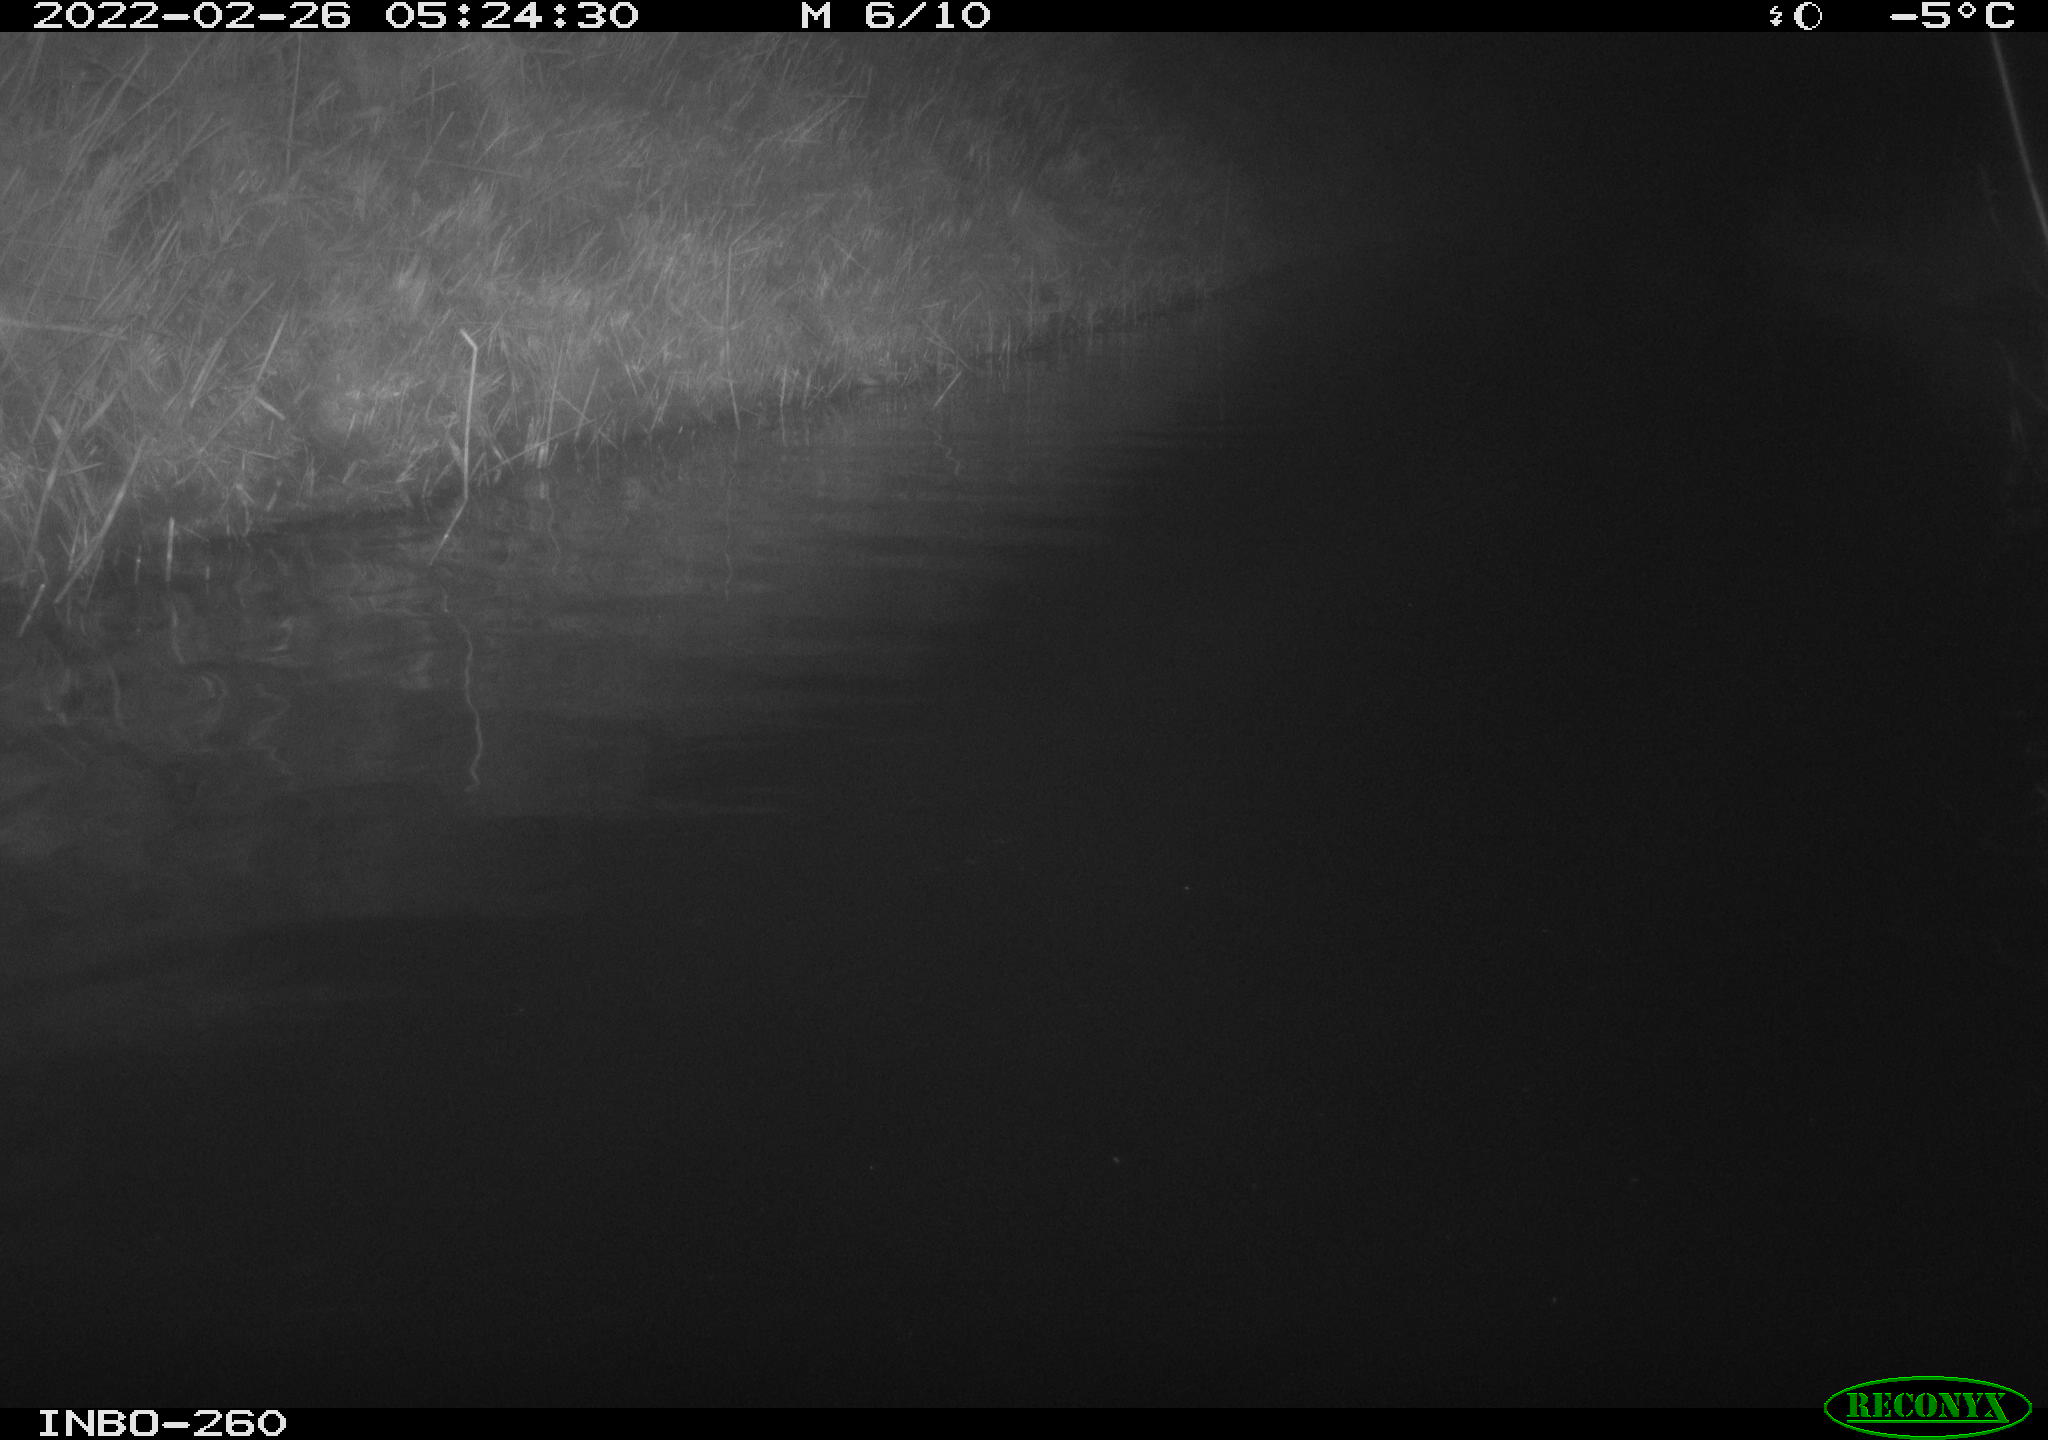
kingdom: Animalia
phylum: Chordata
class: Mammalia
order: Rodentia
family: Cricetidae
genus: Ondatra
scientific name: Ondatra zibethicus
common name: Muskrat
